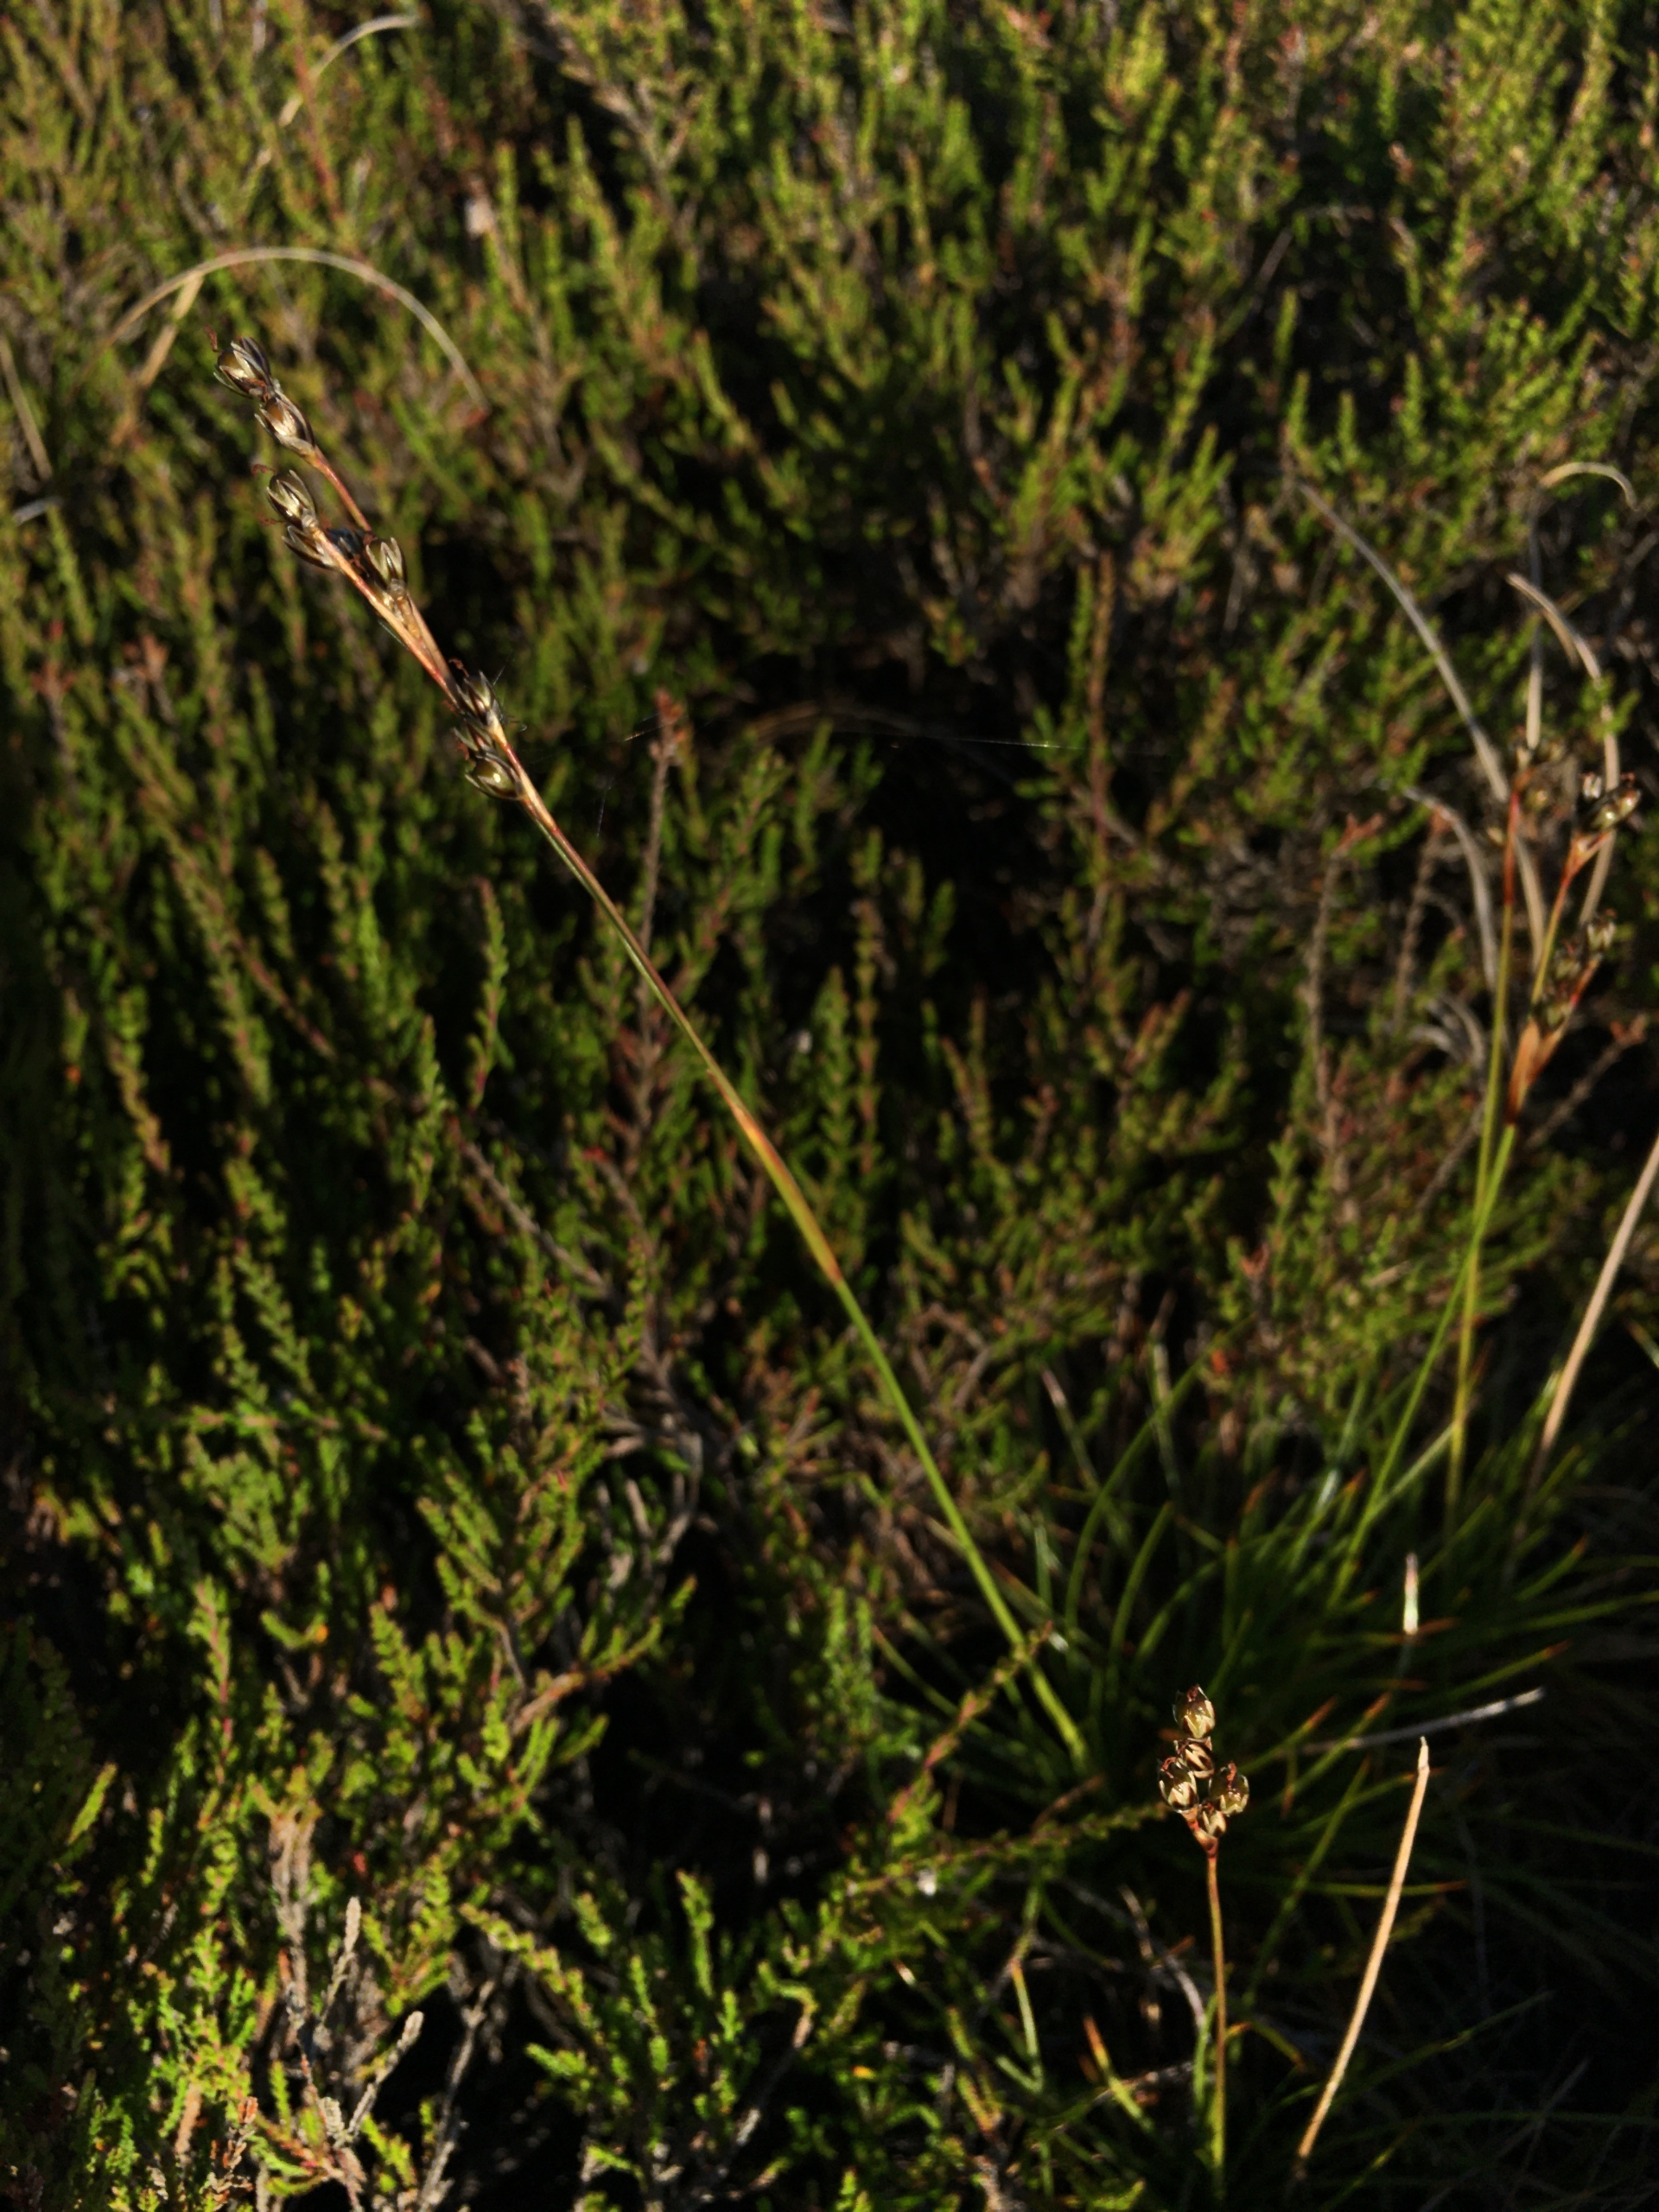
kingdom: Plantae
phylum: Tracheophyta
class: Liliopsida
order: Poales
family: Juncaceae
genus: Juncus
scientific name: Juncus squarrosus
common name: Børste-siv
